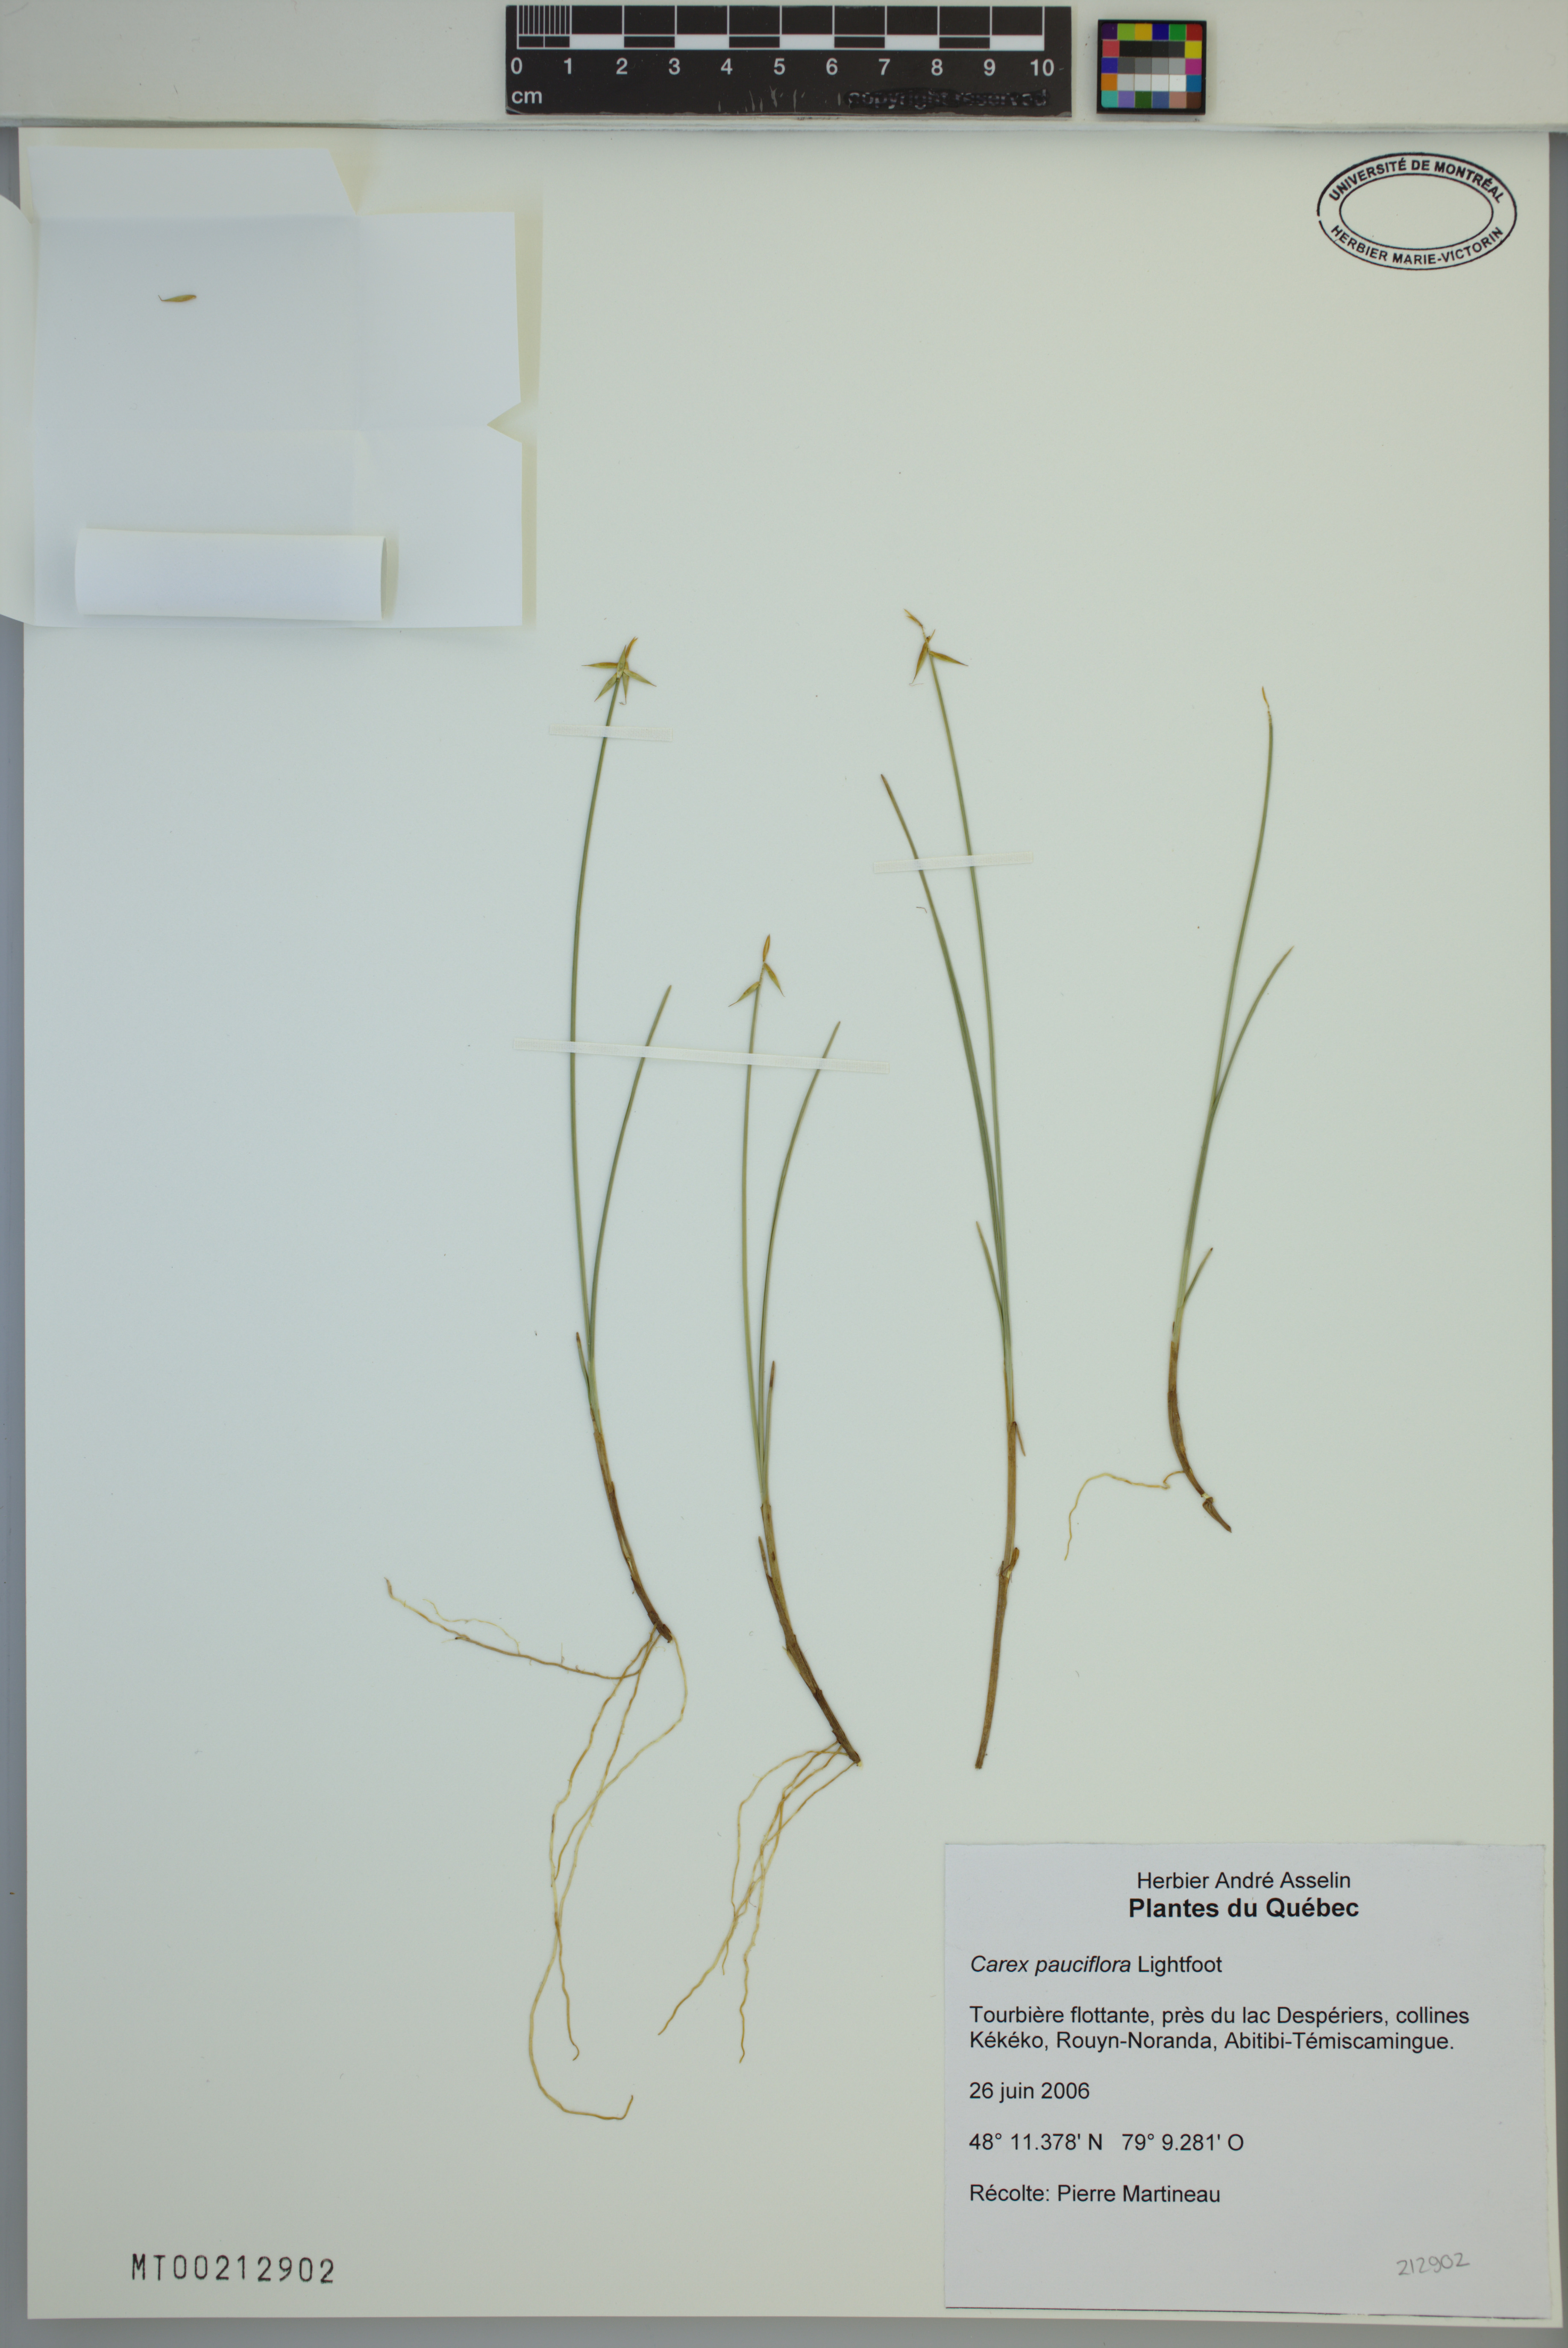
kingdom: Plantae
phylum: Tracheophyta
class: Liliopsida
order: Poales
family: Cyperaceae
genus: Carex
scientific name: Carex pauciflora
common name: Few-flowered sedge
